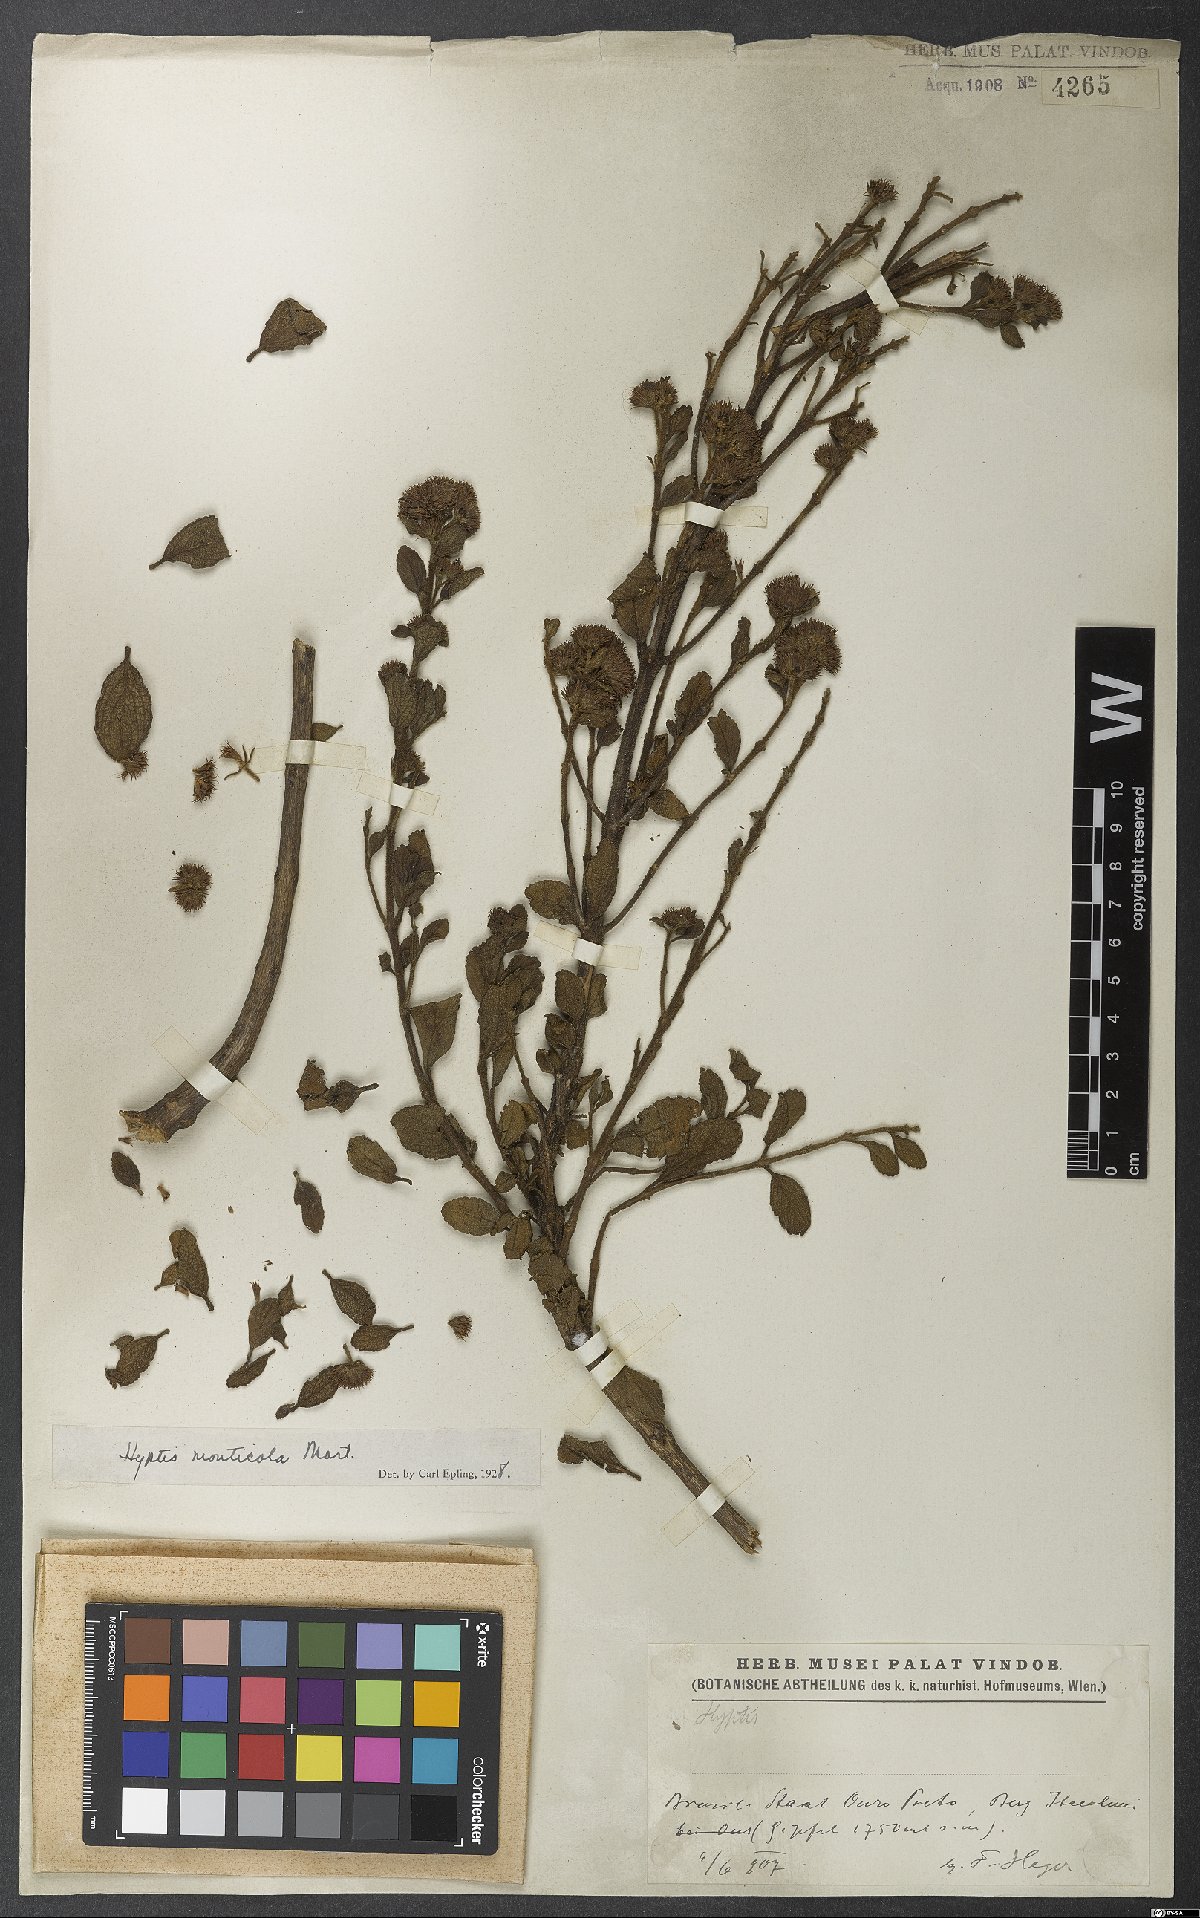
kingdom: Plantae
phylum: Tracheophyta
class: Magnoliopsida
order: Lamiales
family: Lamiaceae
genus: Hyptis
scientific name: Hyptis monticola
